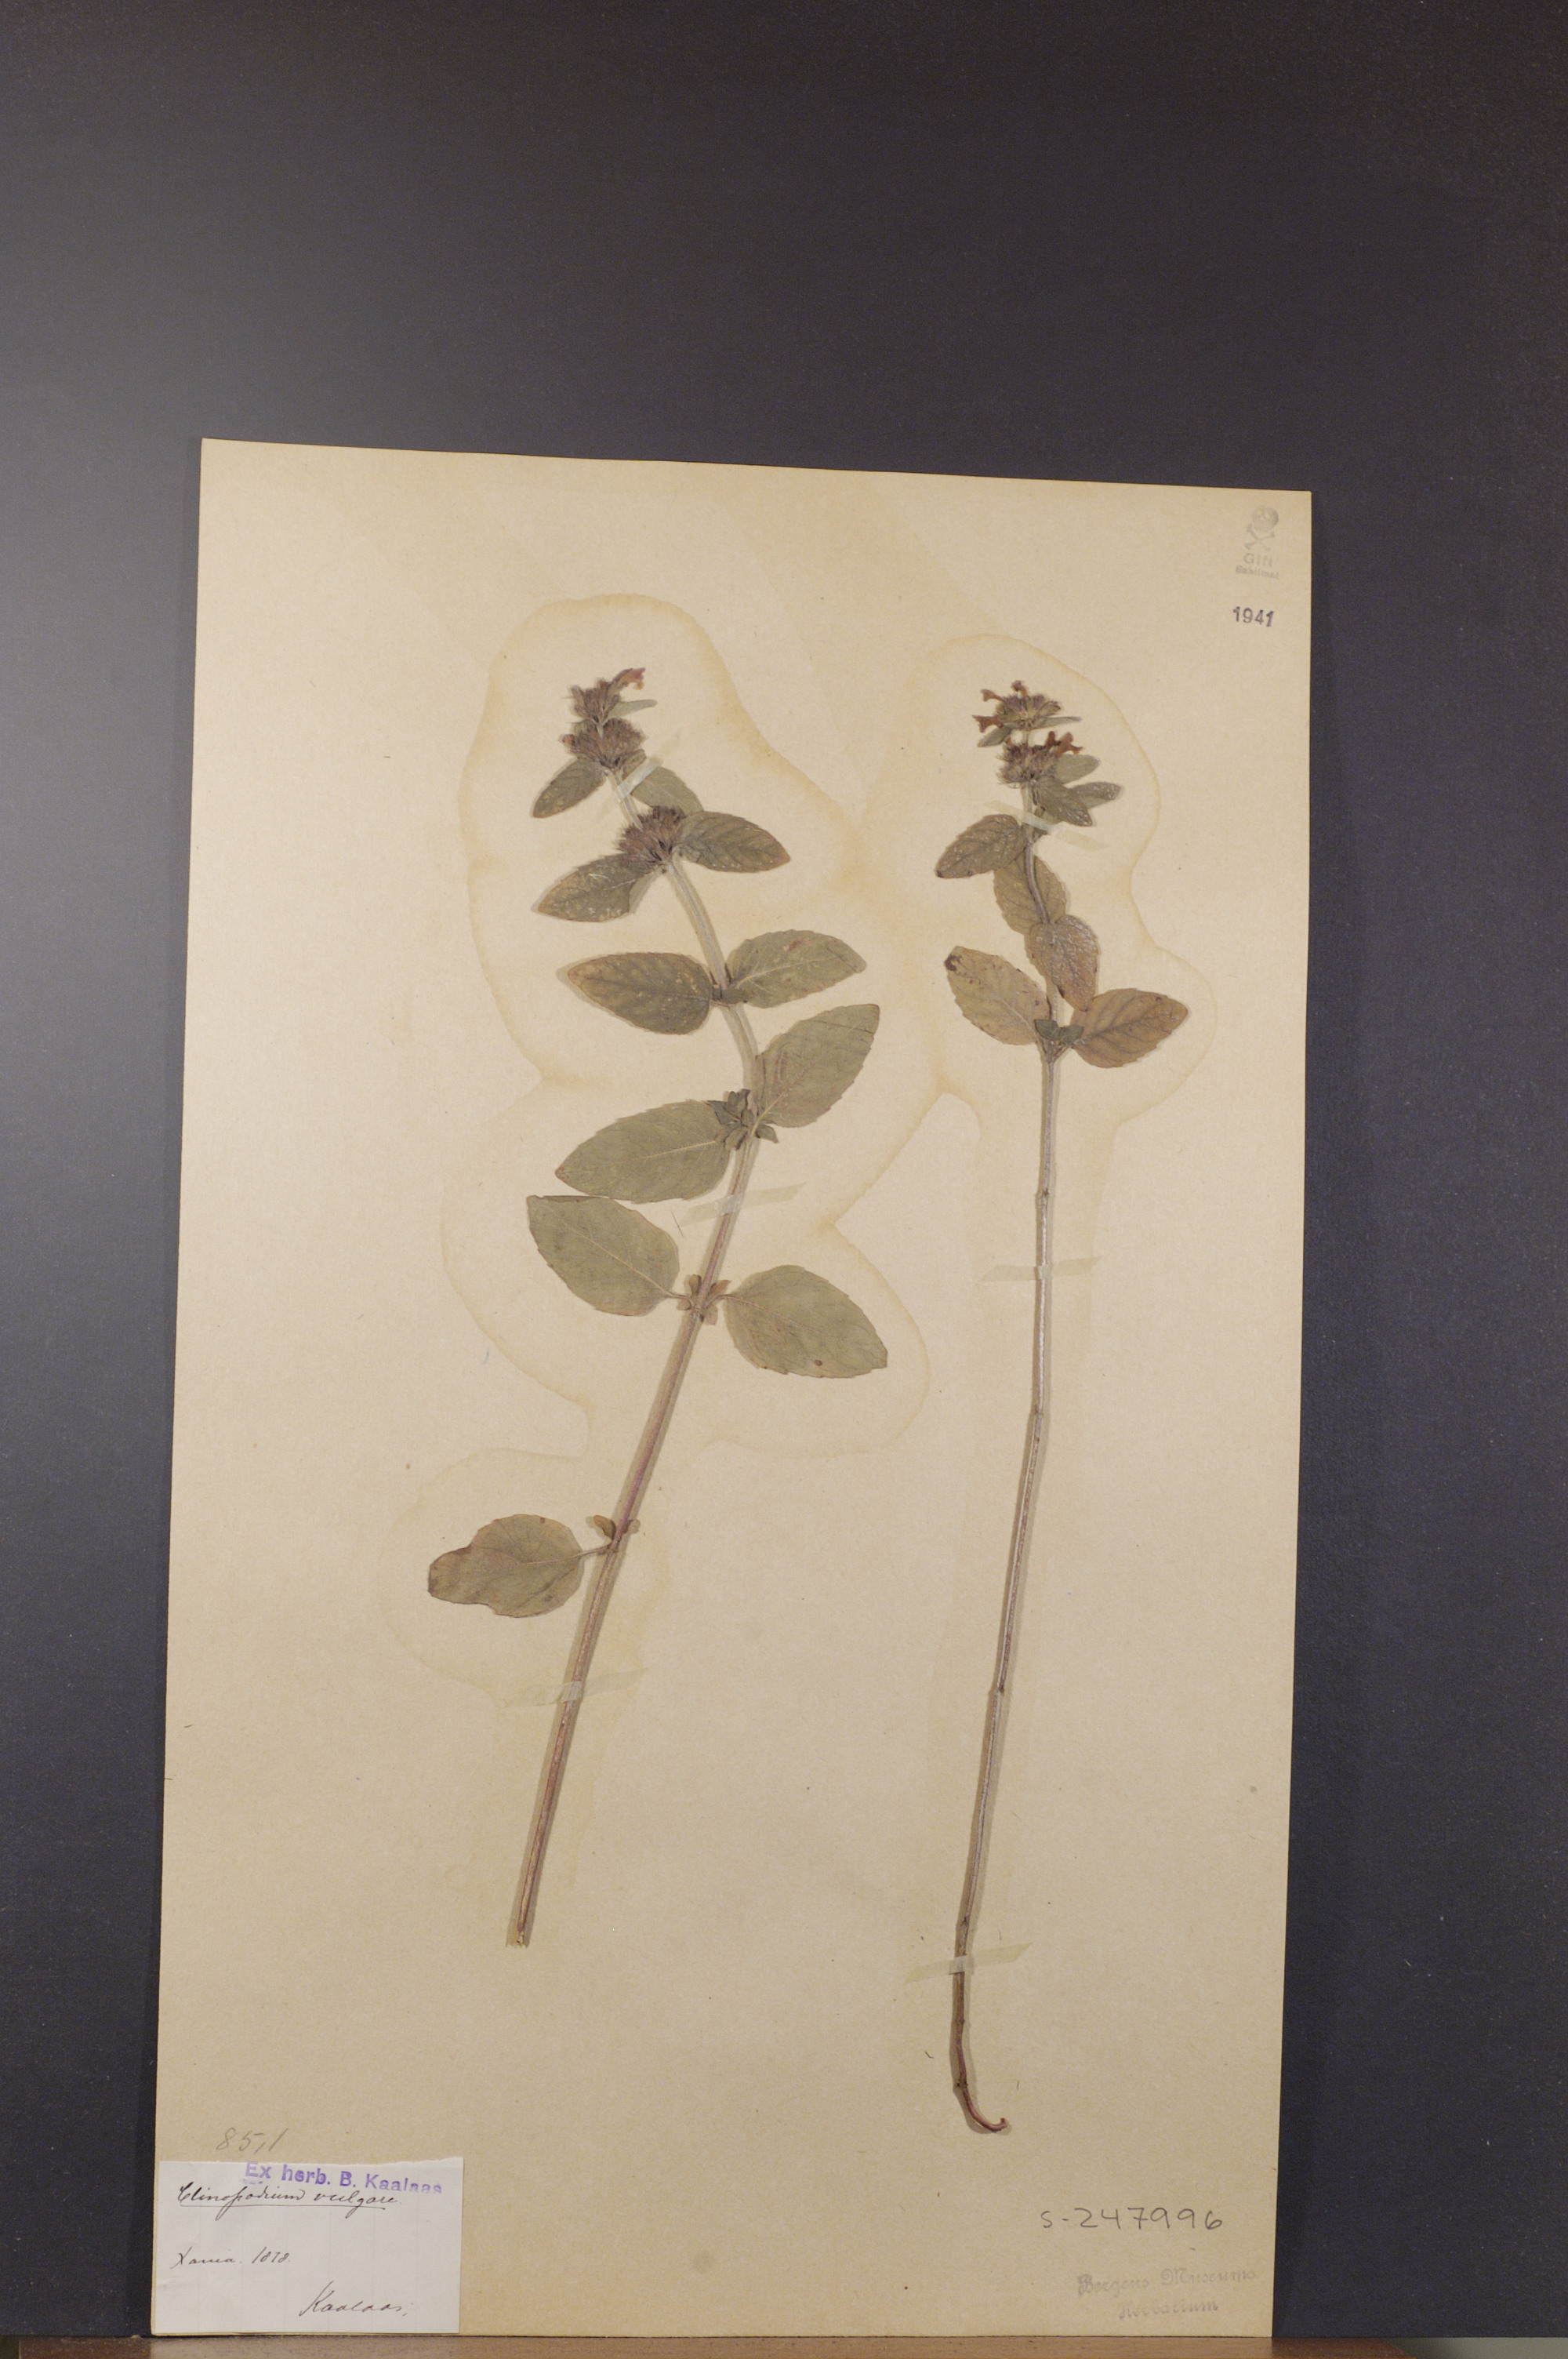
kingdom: Plantae
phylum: Tracheophyta
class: Magnoliopsida
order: Lamiales
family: Lamiaceae
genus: Clinopodium
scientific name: Clinopodium vulgare
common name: Wild basil
